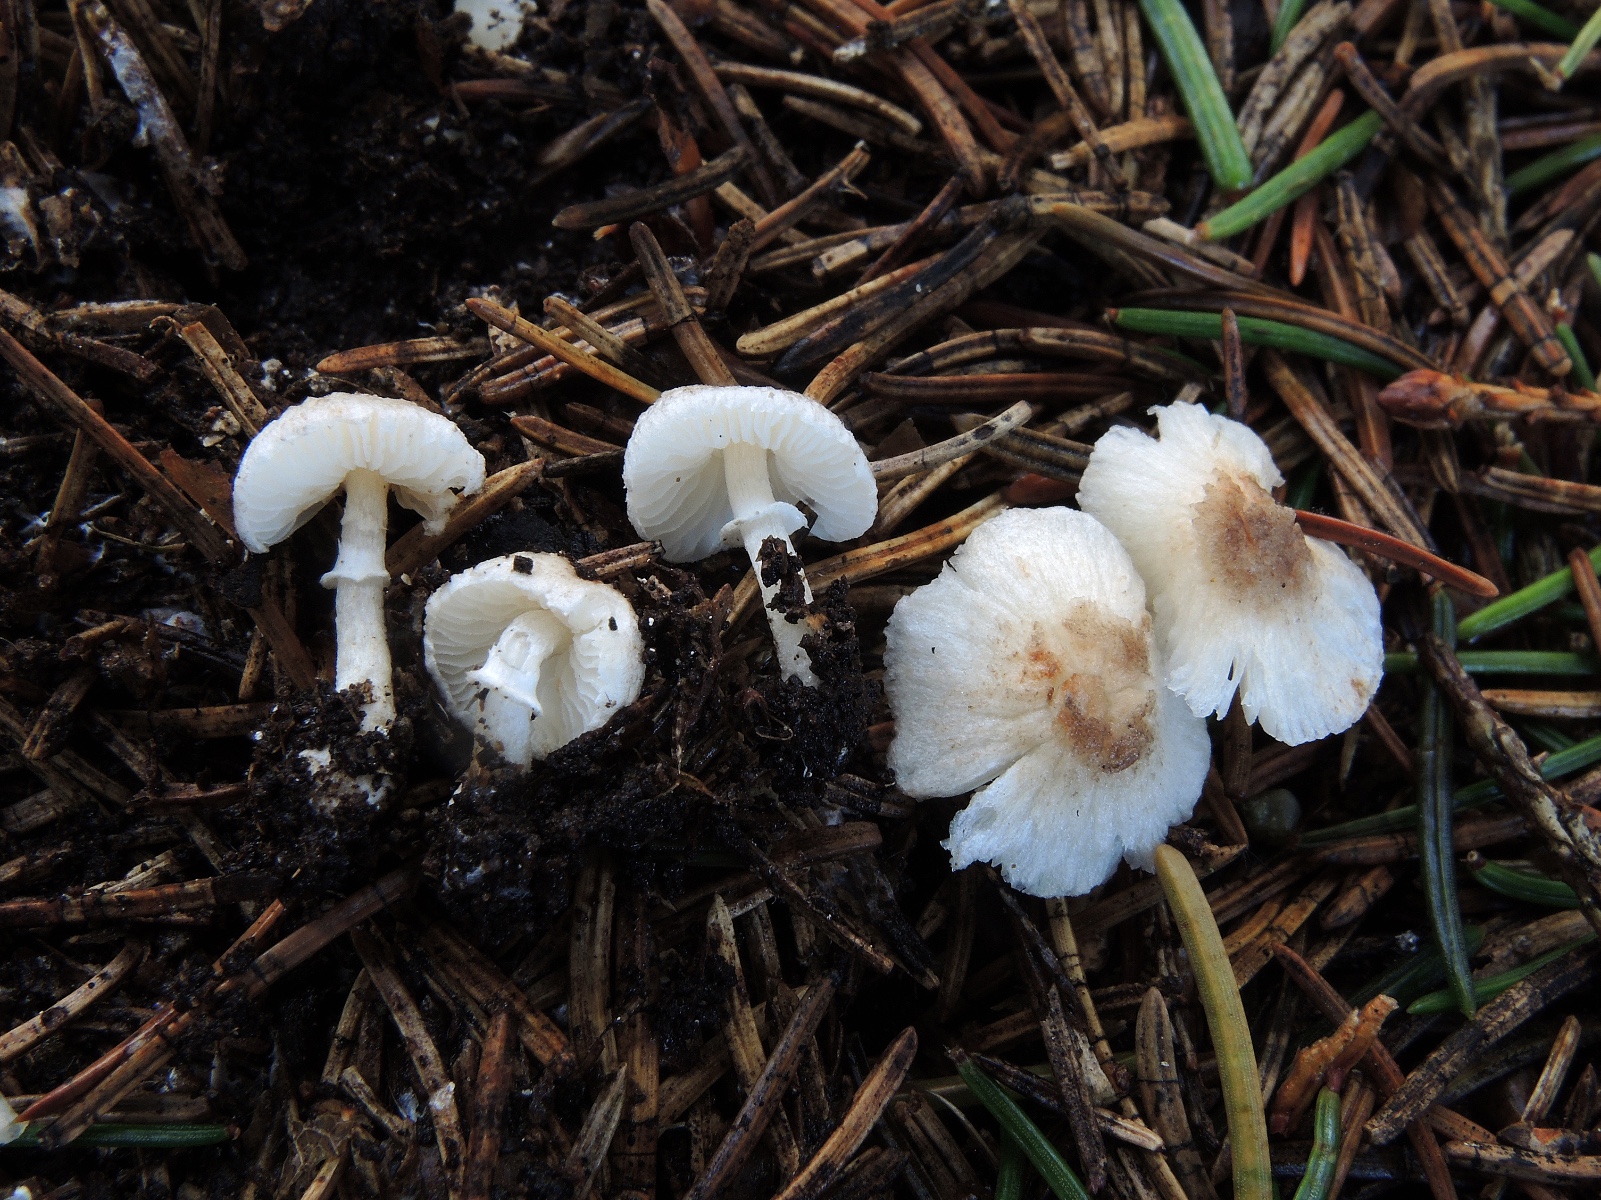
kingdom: Fungi
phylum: Basidiomycota
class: Agaricomycetes
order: Agaricales
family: Agaricaceae
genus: Leucoagaricus
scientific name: Leucoagaricus
